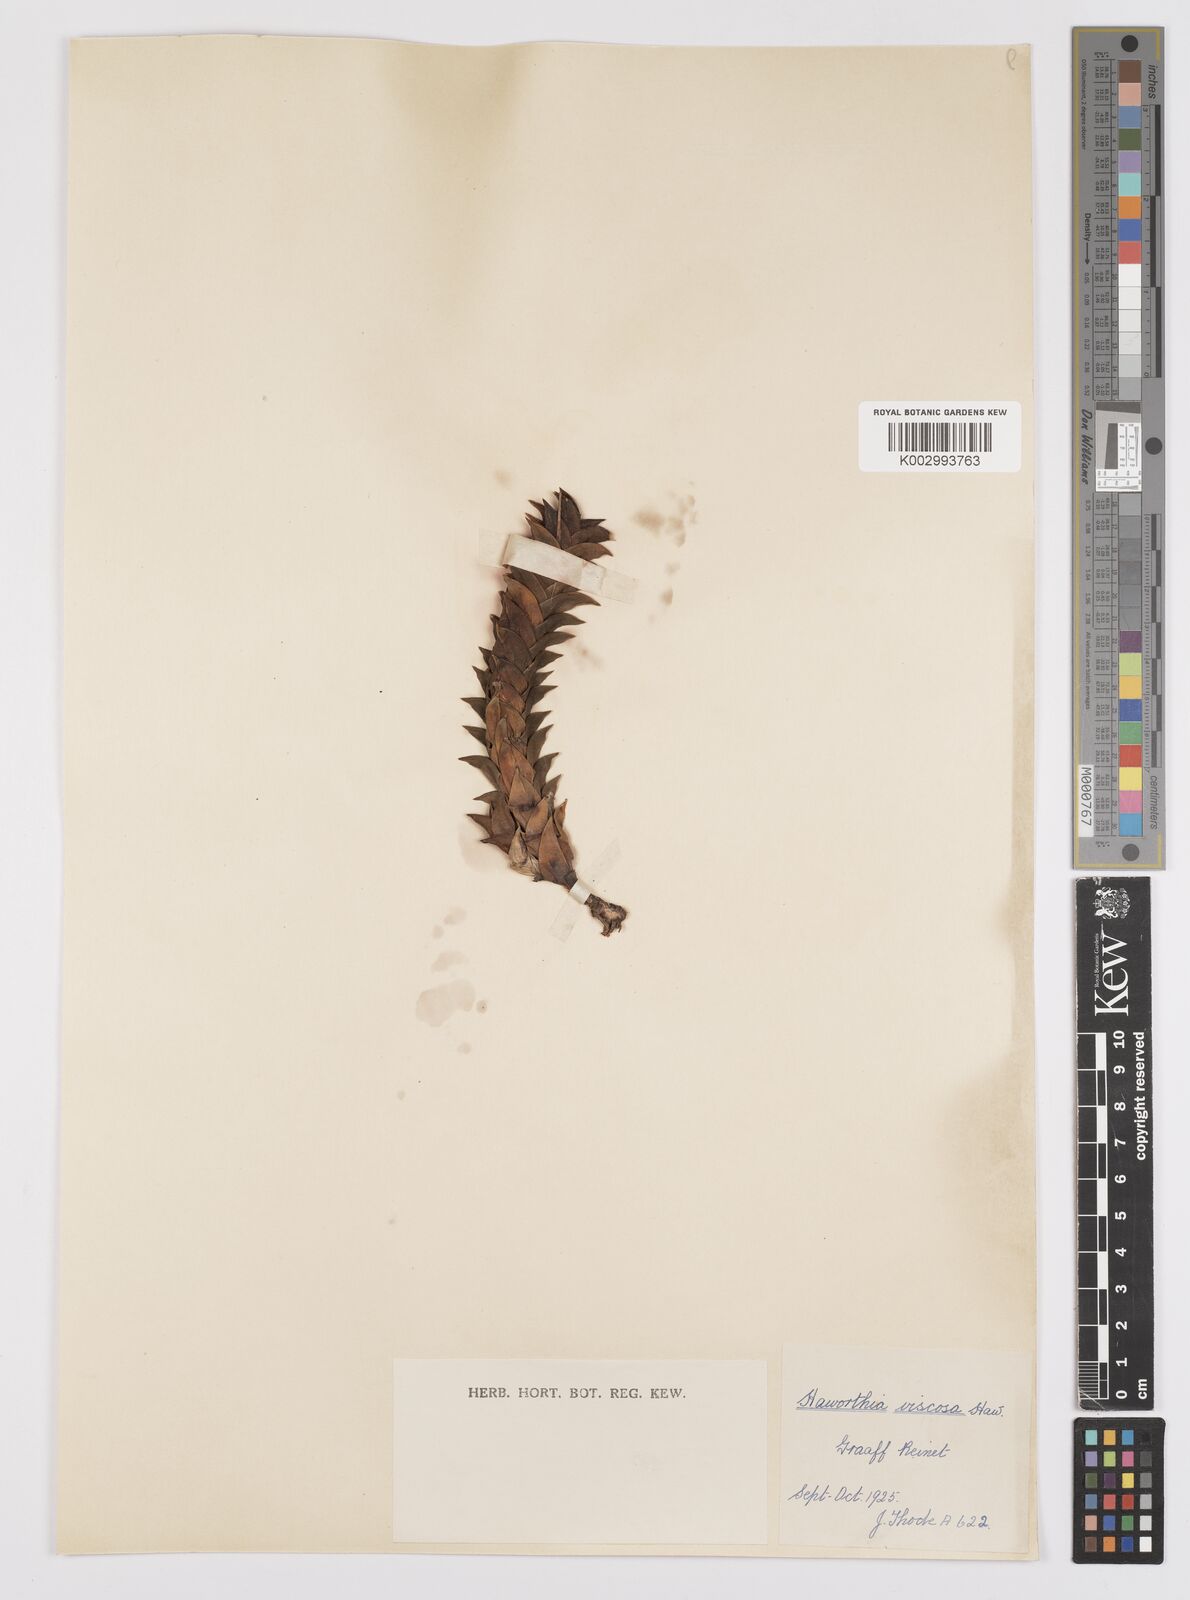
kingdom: Plantae
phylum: Tracheophyta
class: Liliopsida
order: Asparagales
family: Asphodelaceae
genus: Haworthiopsis
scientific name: Haworthiopsis viscosa
